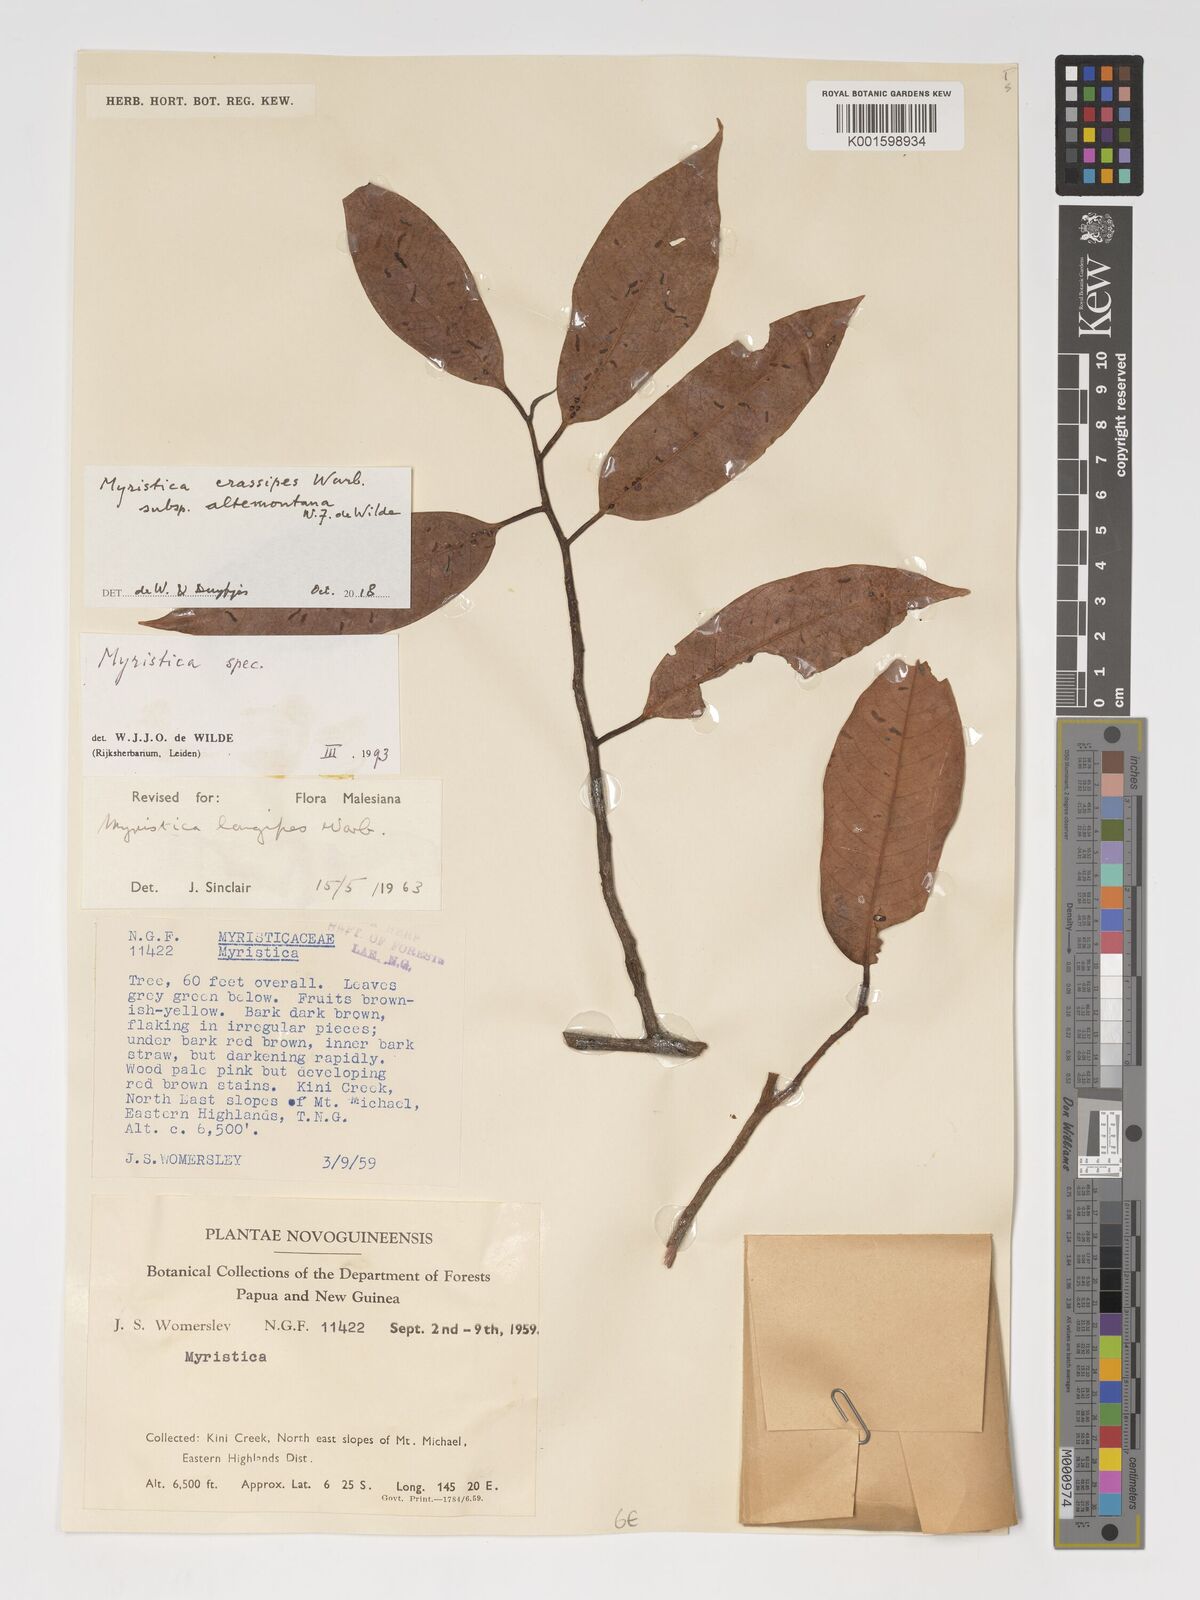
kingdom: Plantae
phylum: Tracheophyta
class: Magnoliopsida
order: Magnoliales
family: Myristicaceae
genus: Myristica
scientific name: Myristica crassipes
